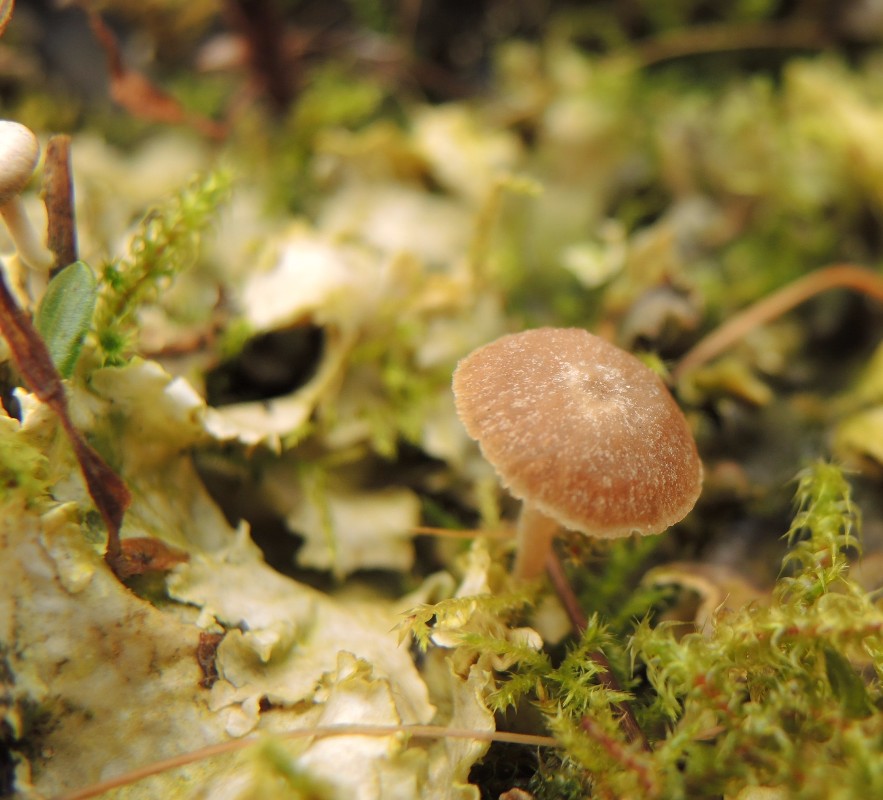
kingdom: Fungi
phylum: Basidiomycota
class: Agaricomycetes
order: Agaricales
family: Hygrophoraceae
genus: Arrhenia
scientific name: Arrhenia peltigerina
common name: skjoldlav-fontænehat
